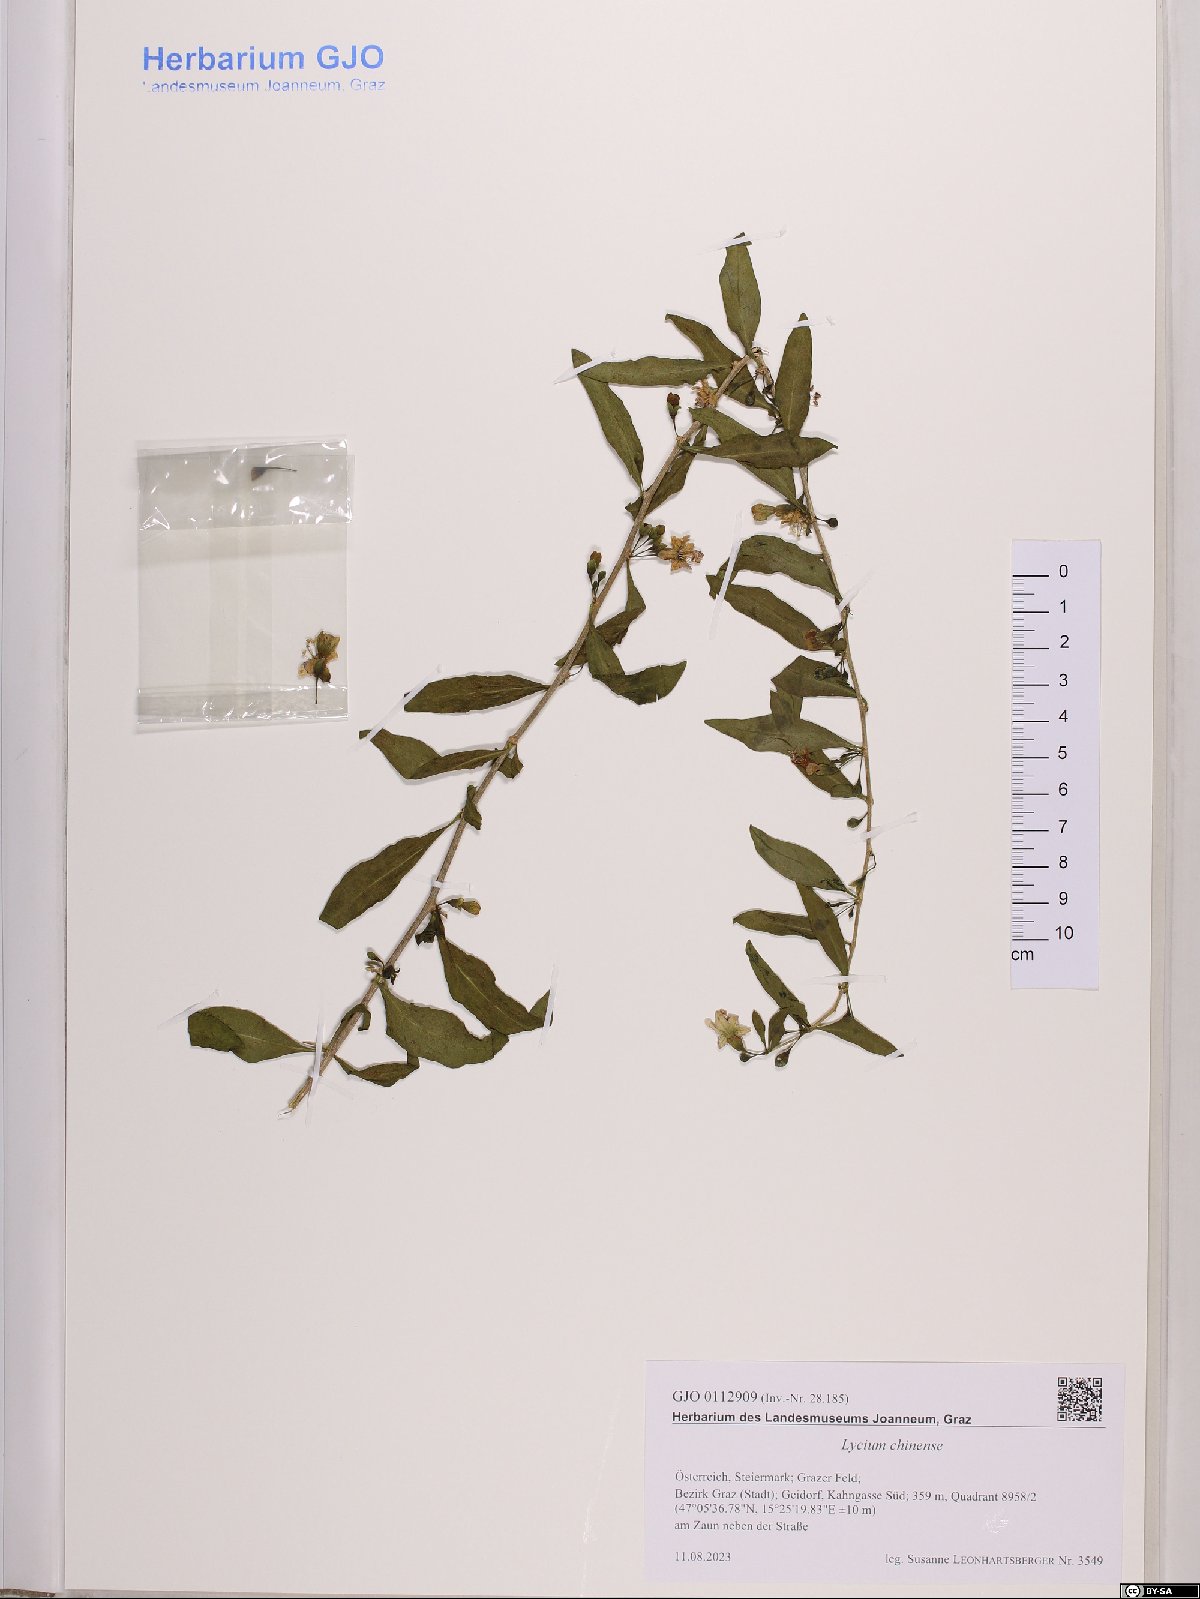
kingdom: Plantae
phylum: Tracheophyta
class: Magnoliopsida
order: Solanales
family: Solanaceae
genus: Lycium
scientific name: Lycium chinense
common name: Chinese teaplant
